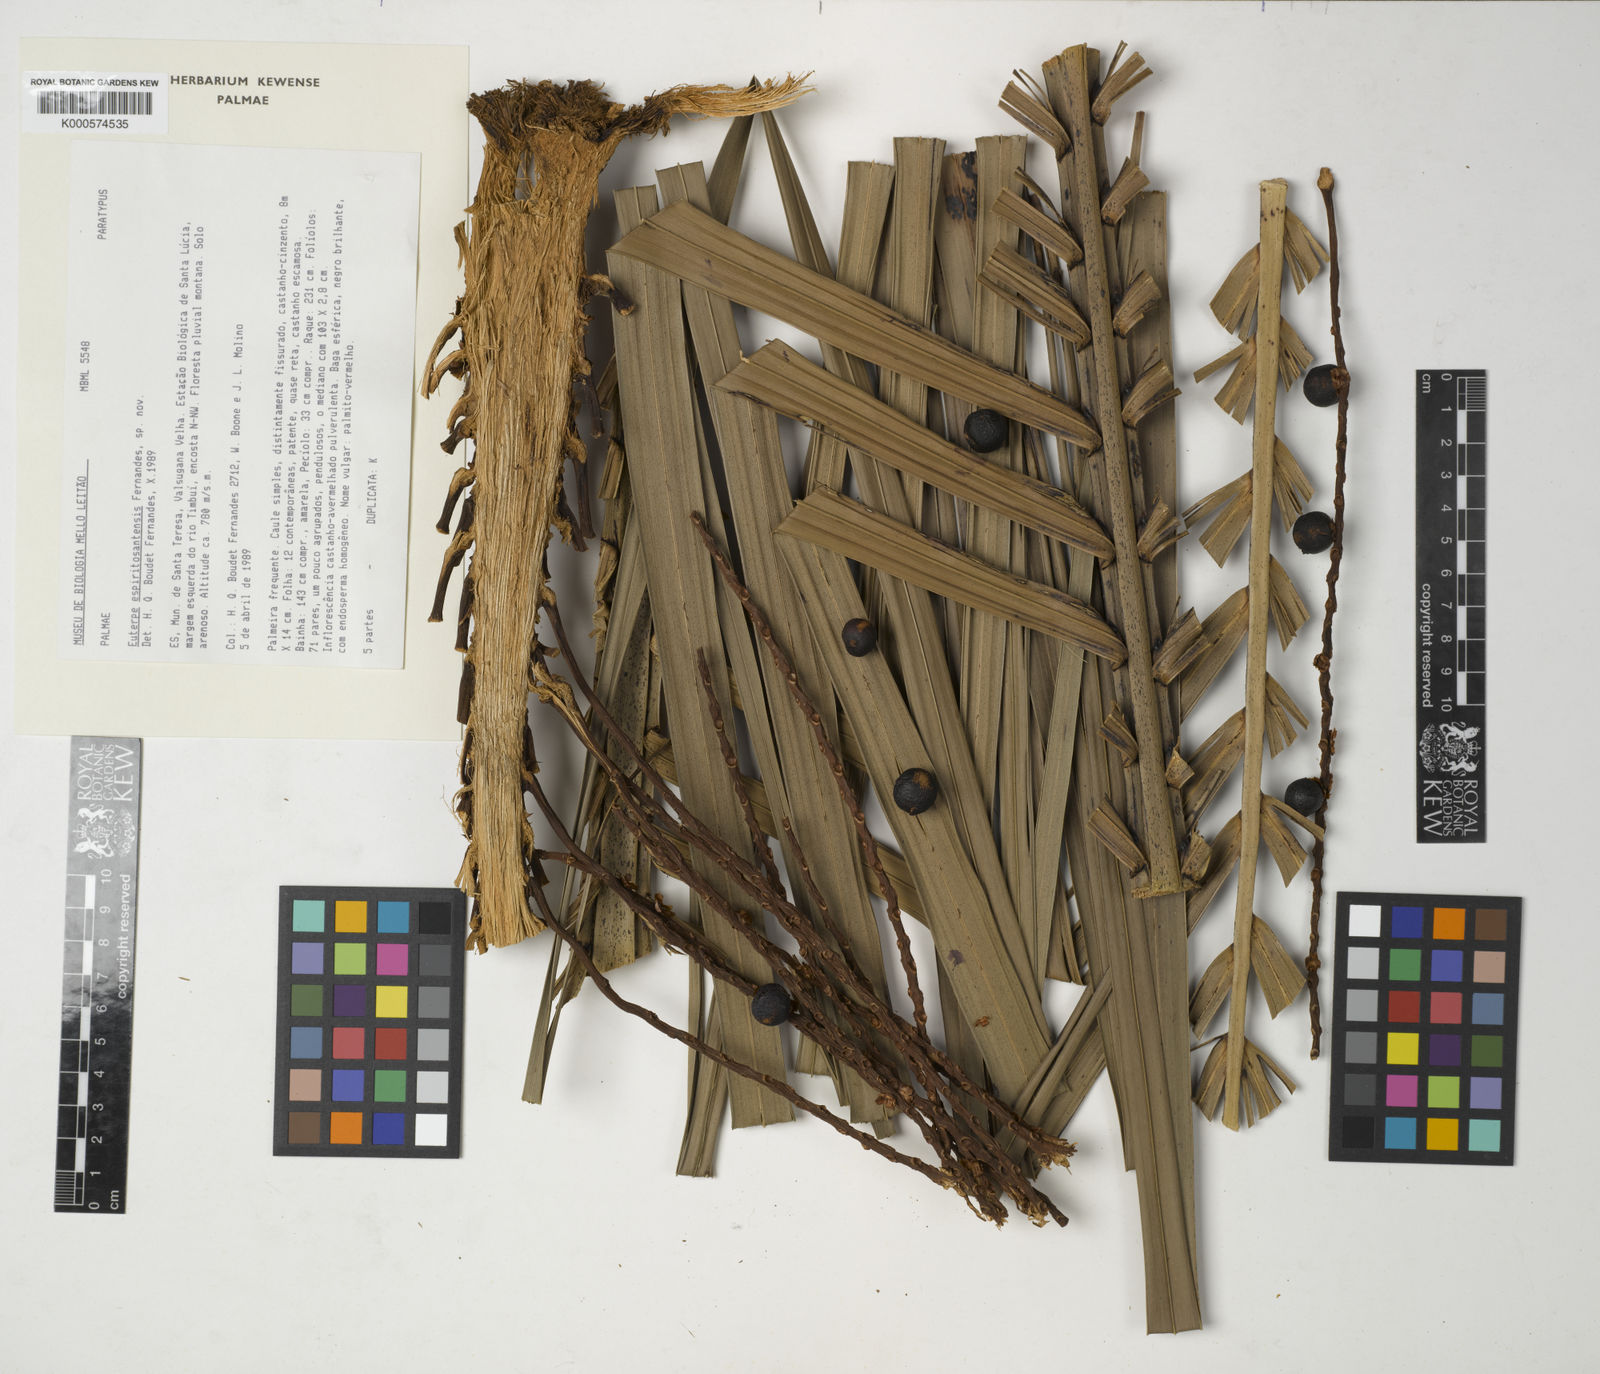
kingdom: Plantae
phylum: Tracheophyta
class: Liliopsida
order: Arecales
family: Arecaceae
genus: Euterpe
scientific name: Euterpe edulis
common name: Assai palm
